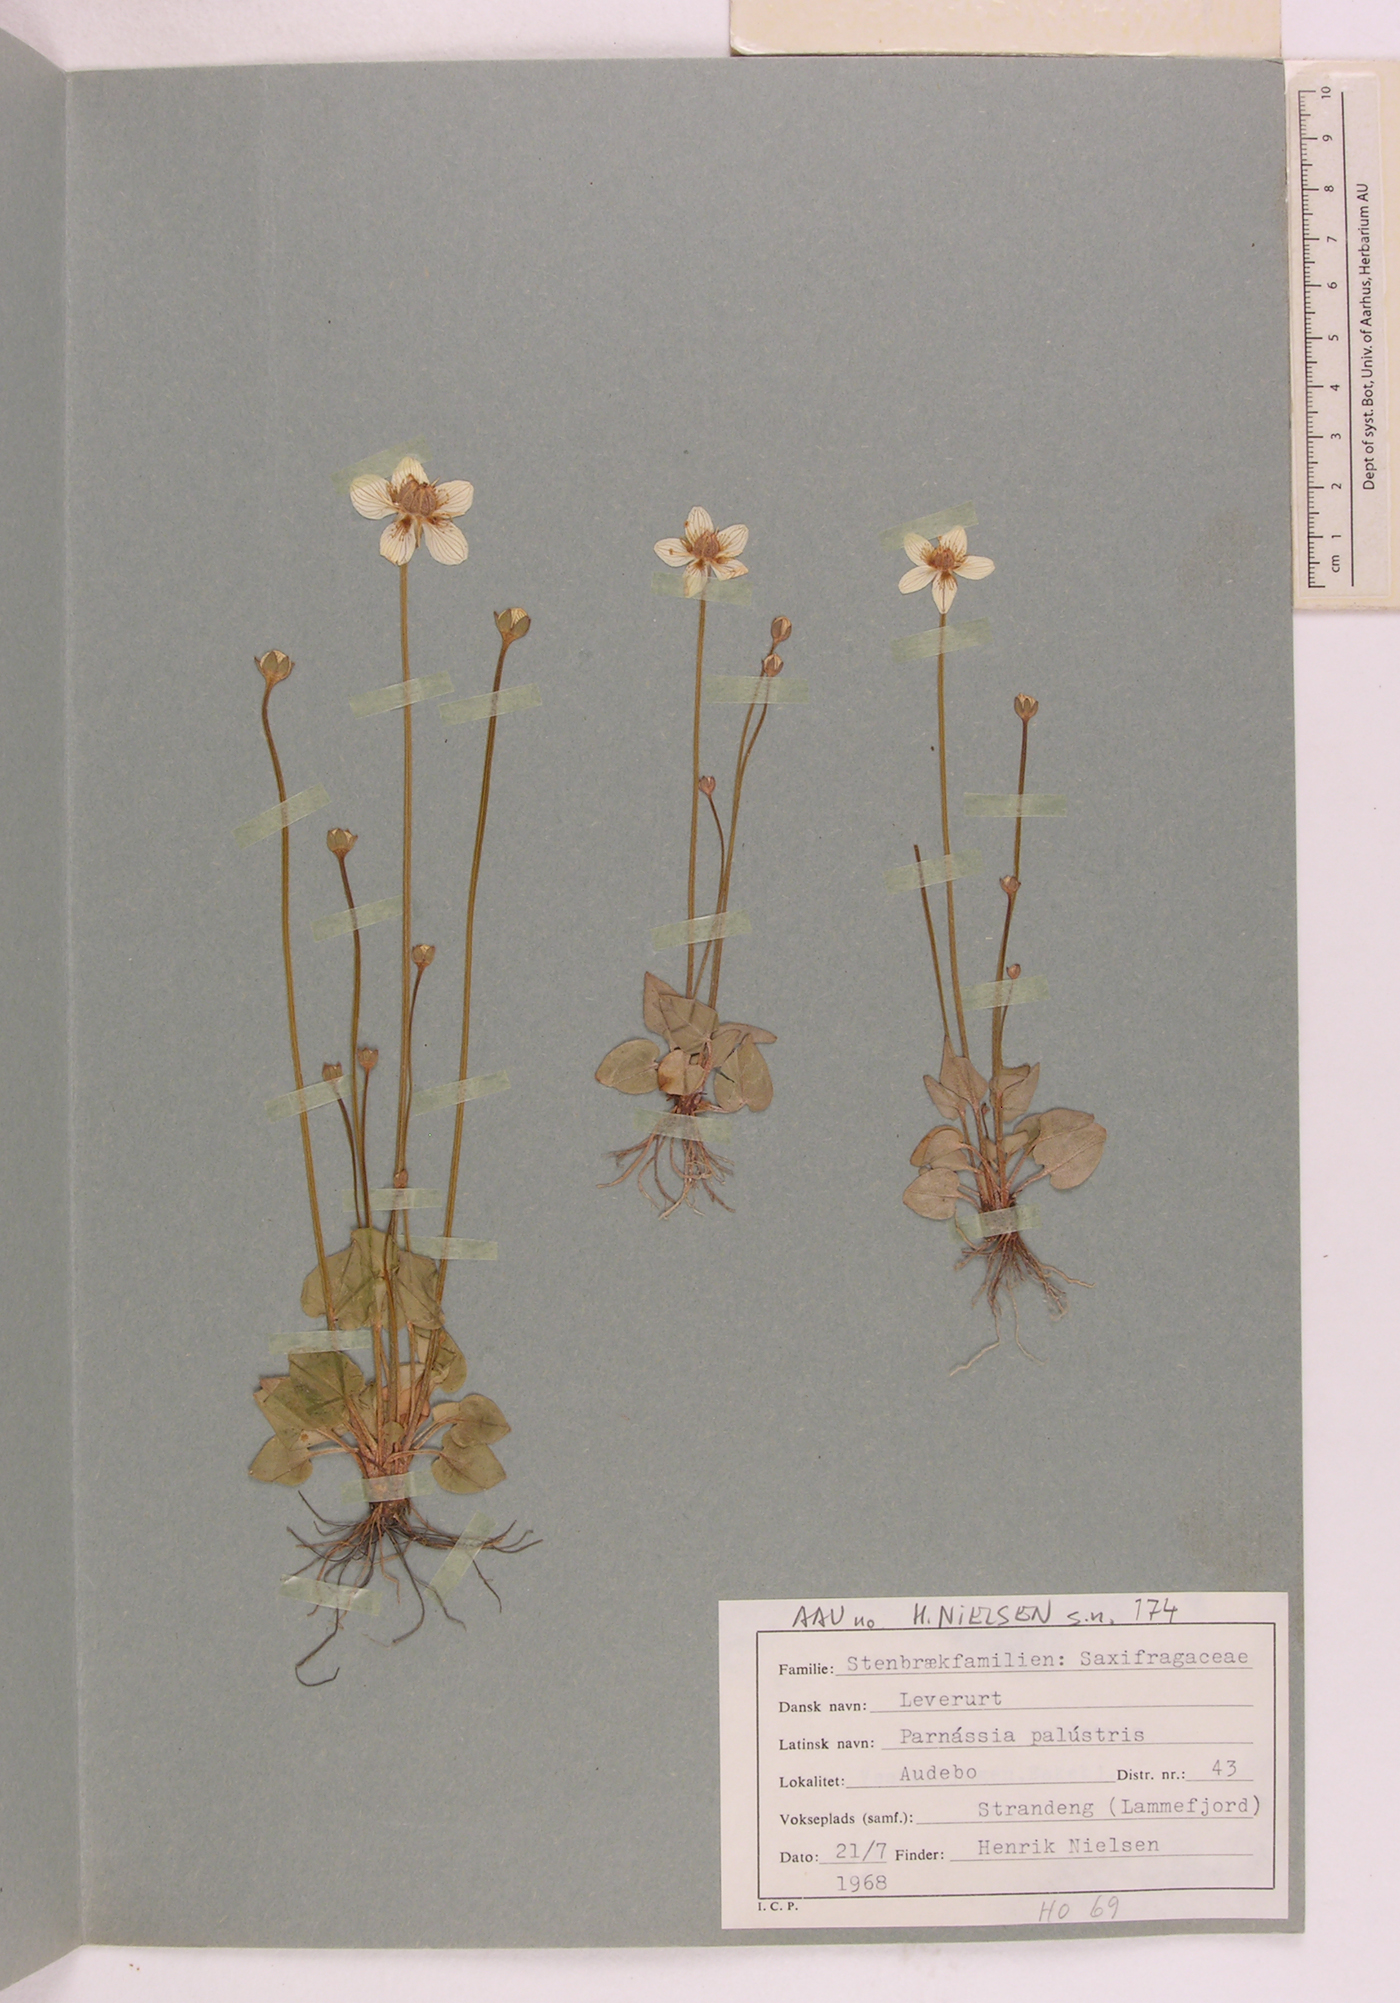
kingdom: Plantae
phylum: Tracheophyta
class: Magnoliopsida
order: Celastrales
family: Parnassiaceae
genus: Parnassia
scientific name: Parnassia palustris
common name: Grass-of-parnassus
